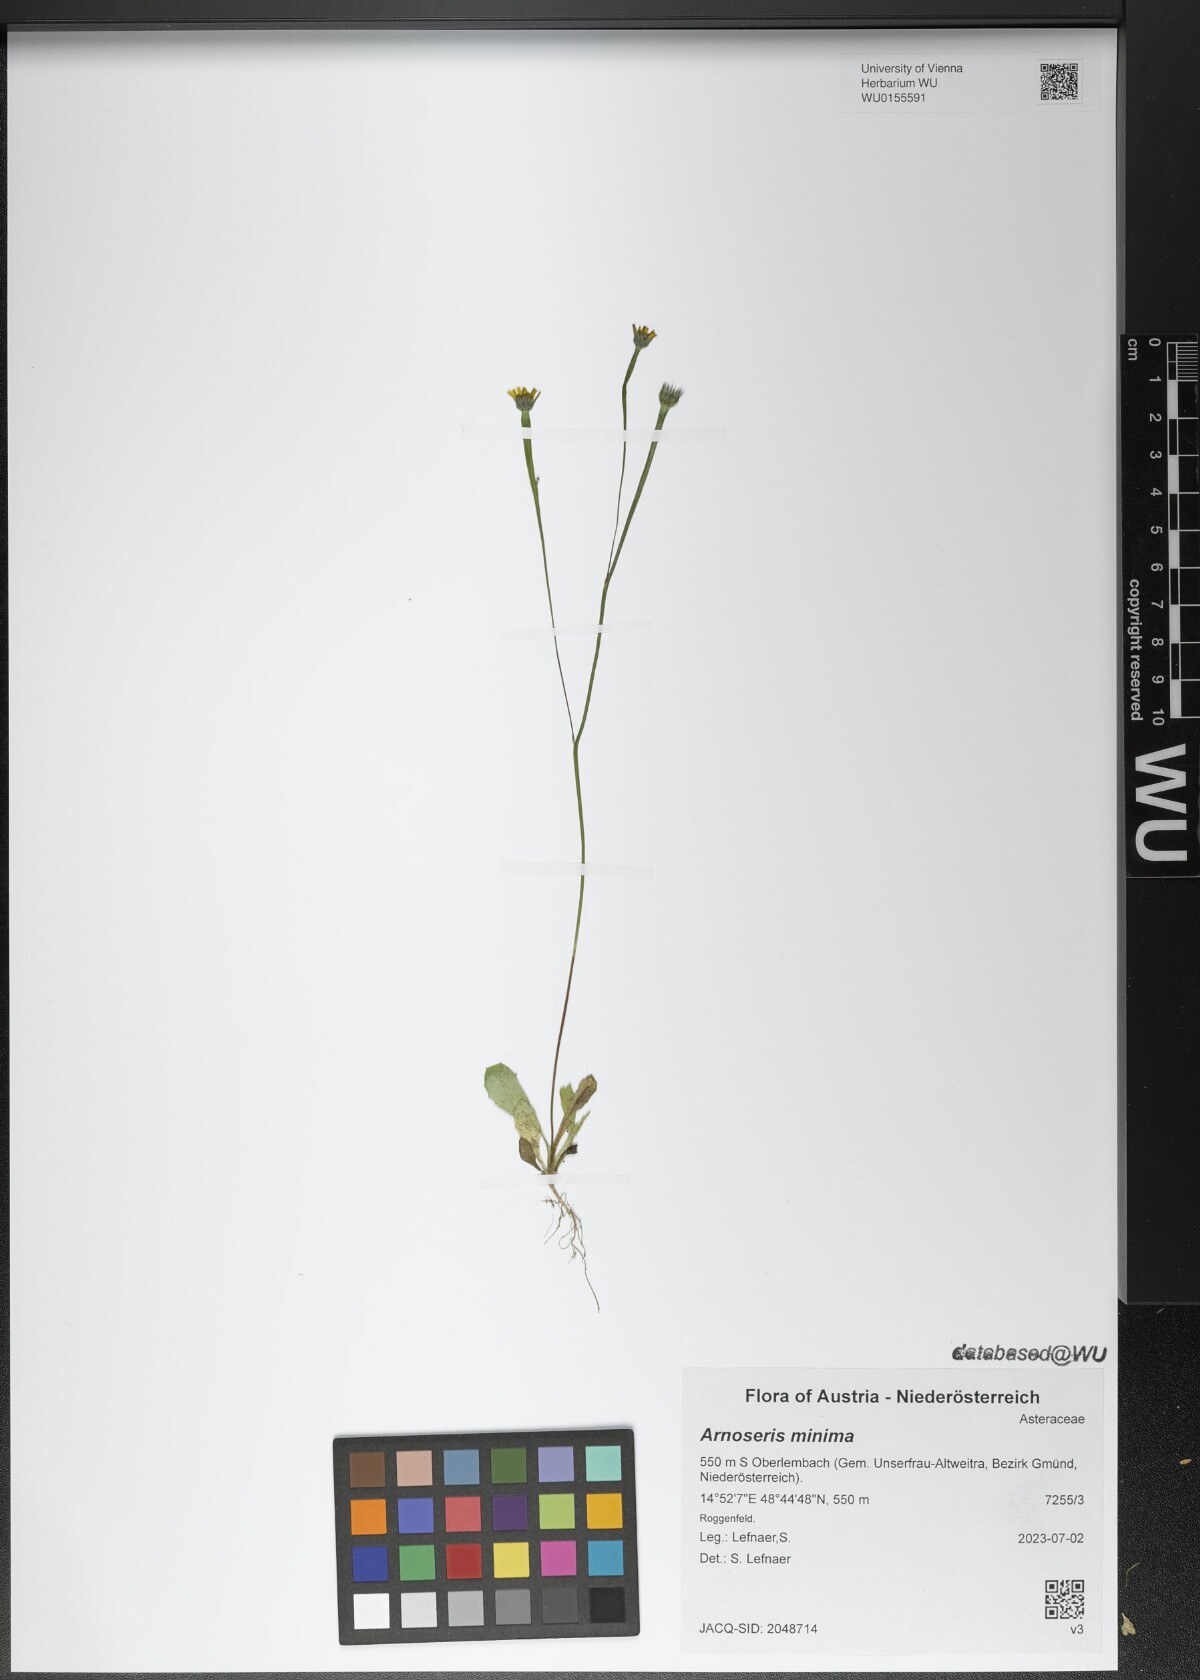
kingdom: Plantae
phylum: Tracheophyta
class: Magnoliopsida
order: Asterales
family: Asteraceae
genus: Arnoseris
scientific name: Arnoseris minima
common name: Lamb's succory
